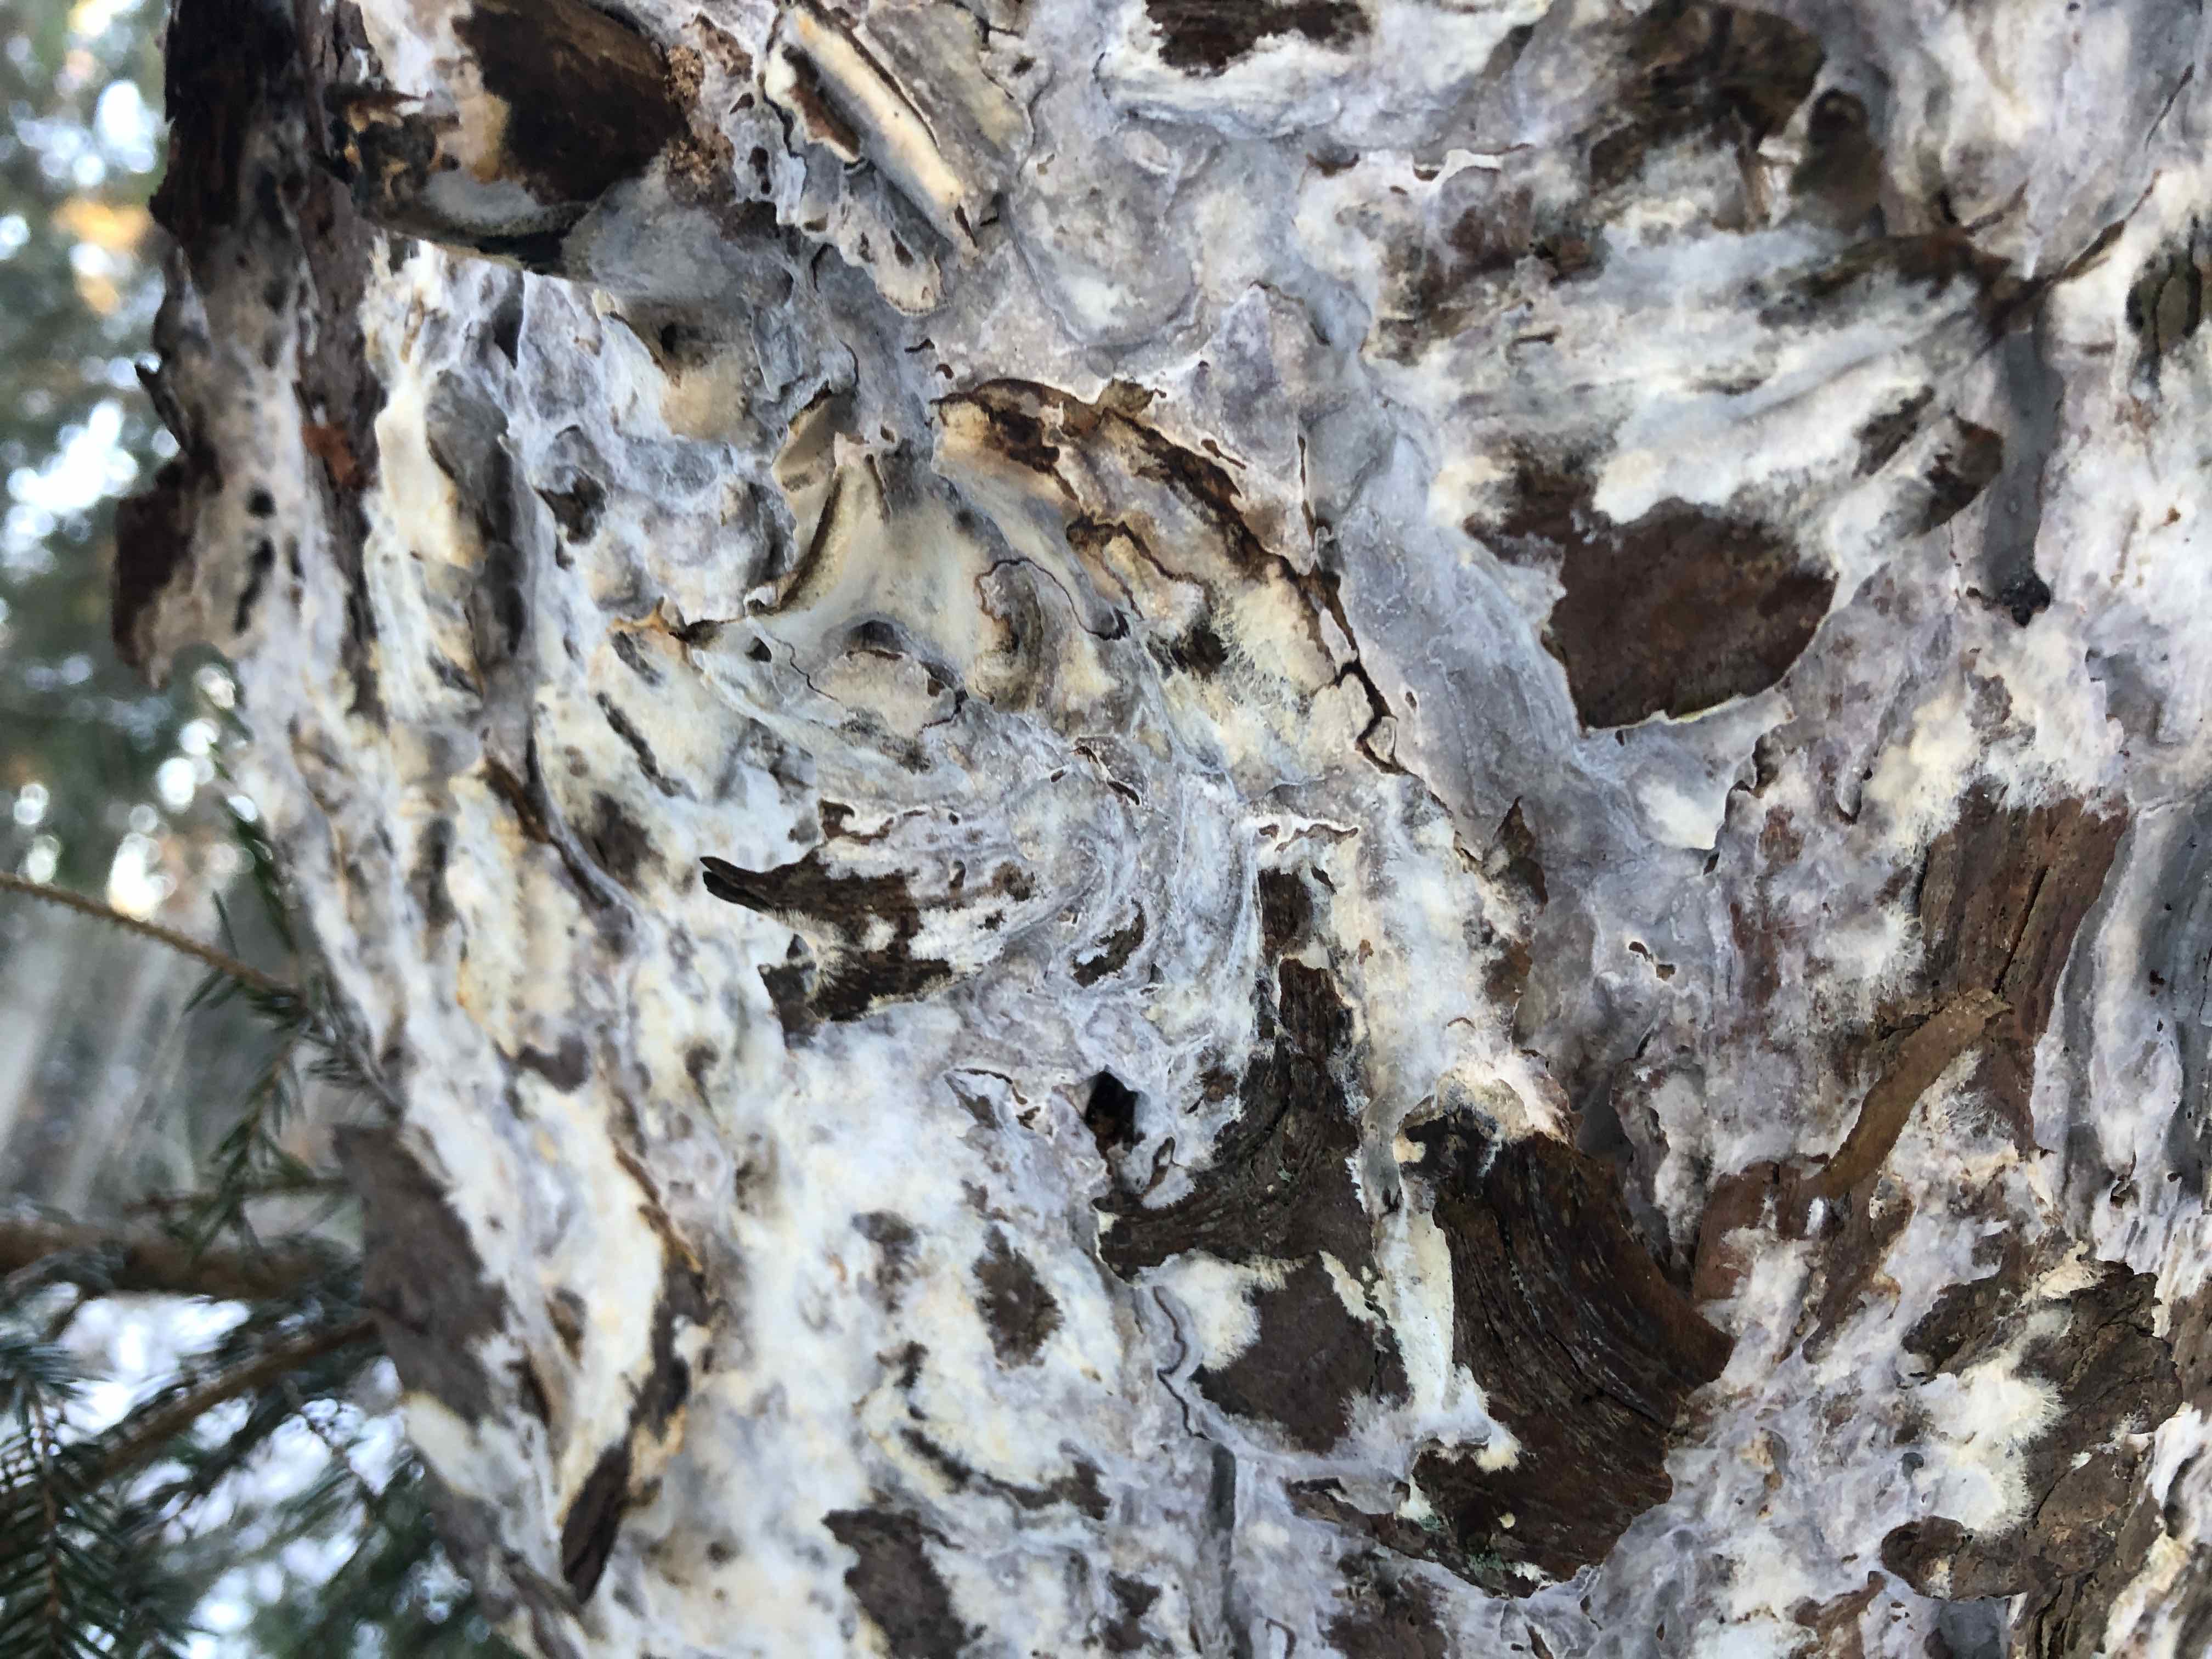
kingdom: Fungi
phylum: Basidiomycota
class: Agaricomycetes
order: Polyporales
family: Phanerochaetaceae
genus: Phlebiopsis
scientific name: Phlebiopsis gigantea
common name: kæmpebarksvamp
